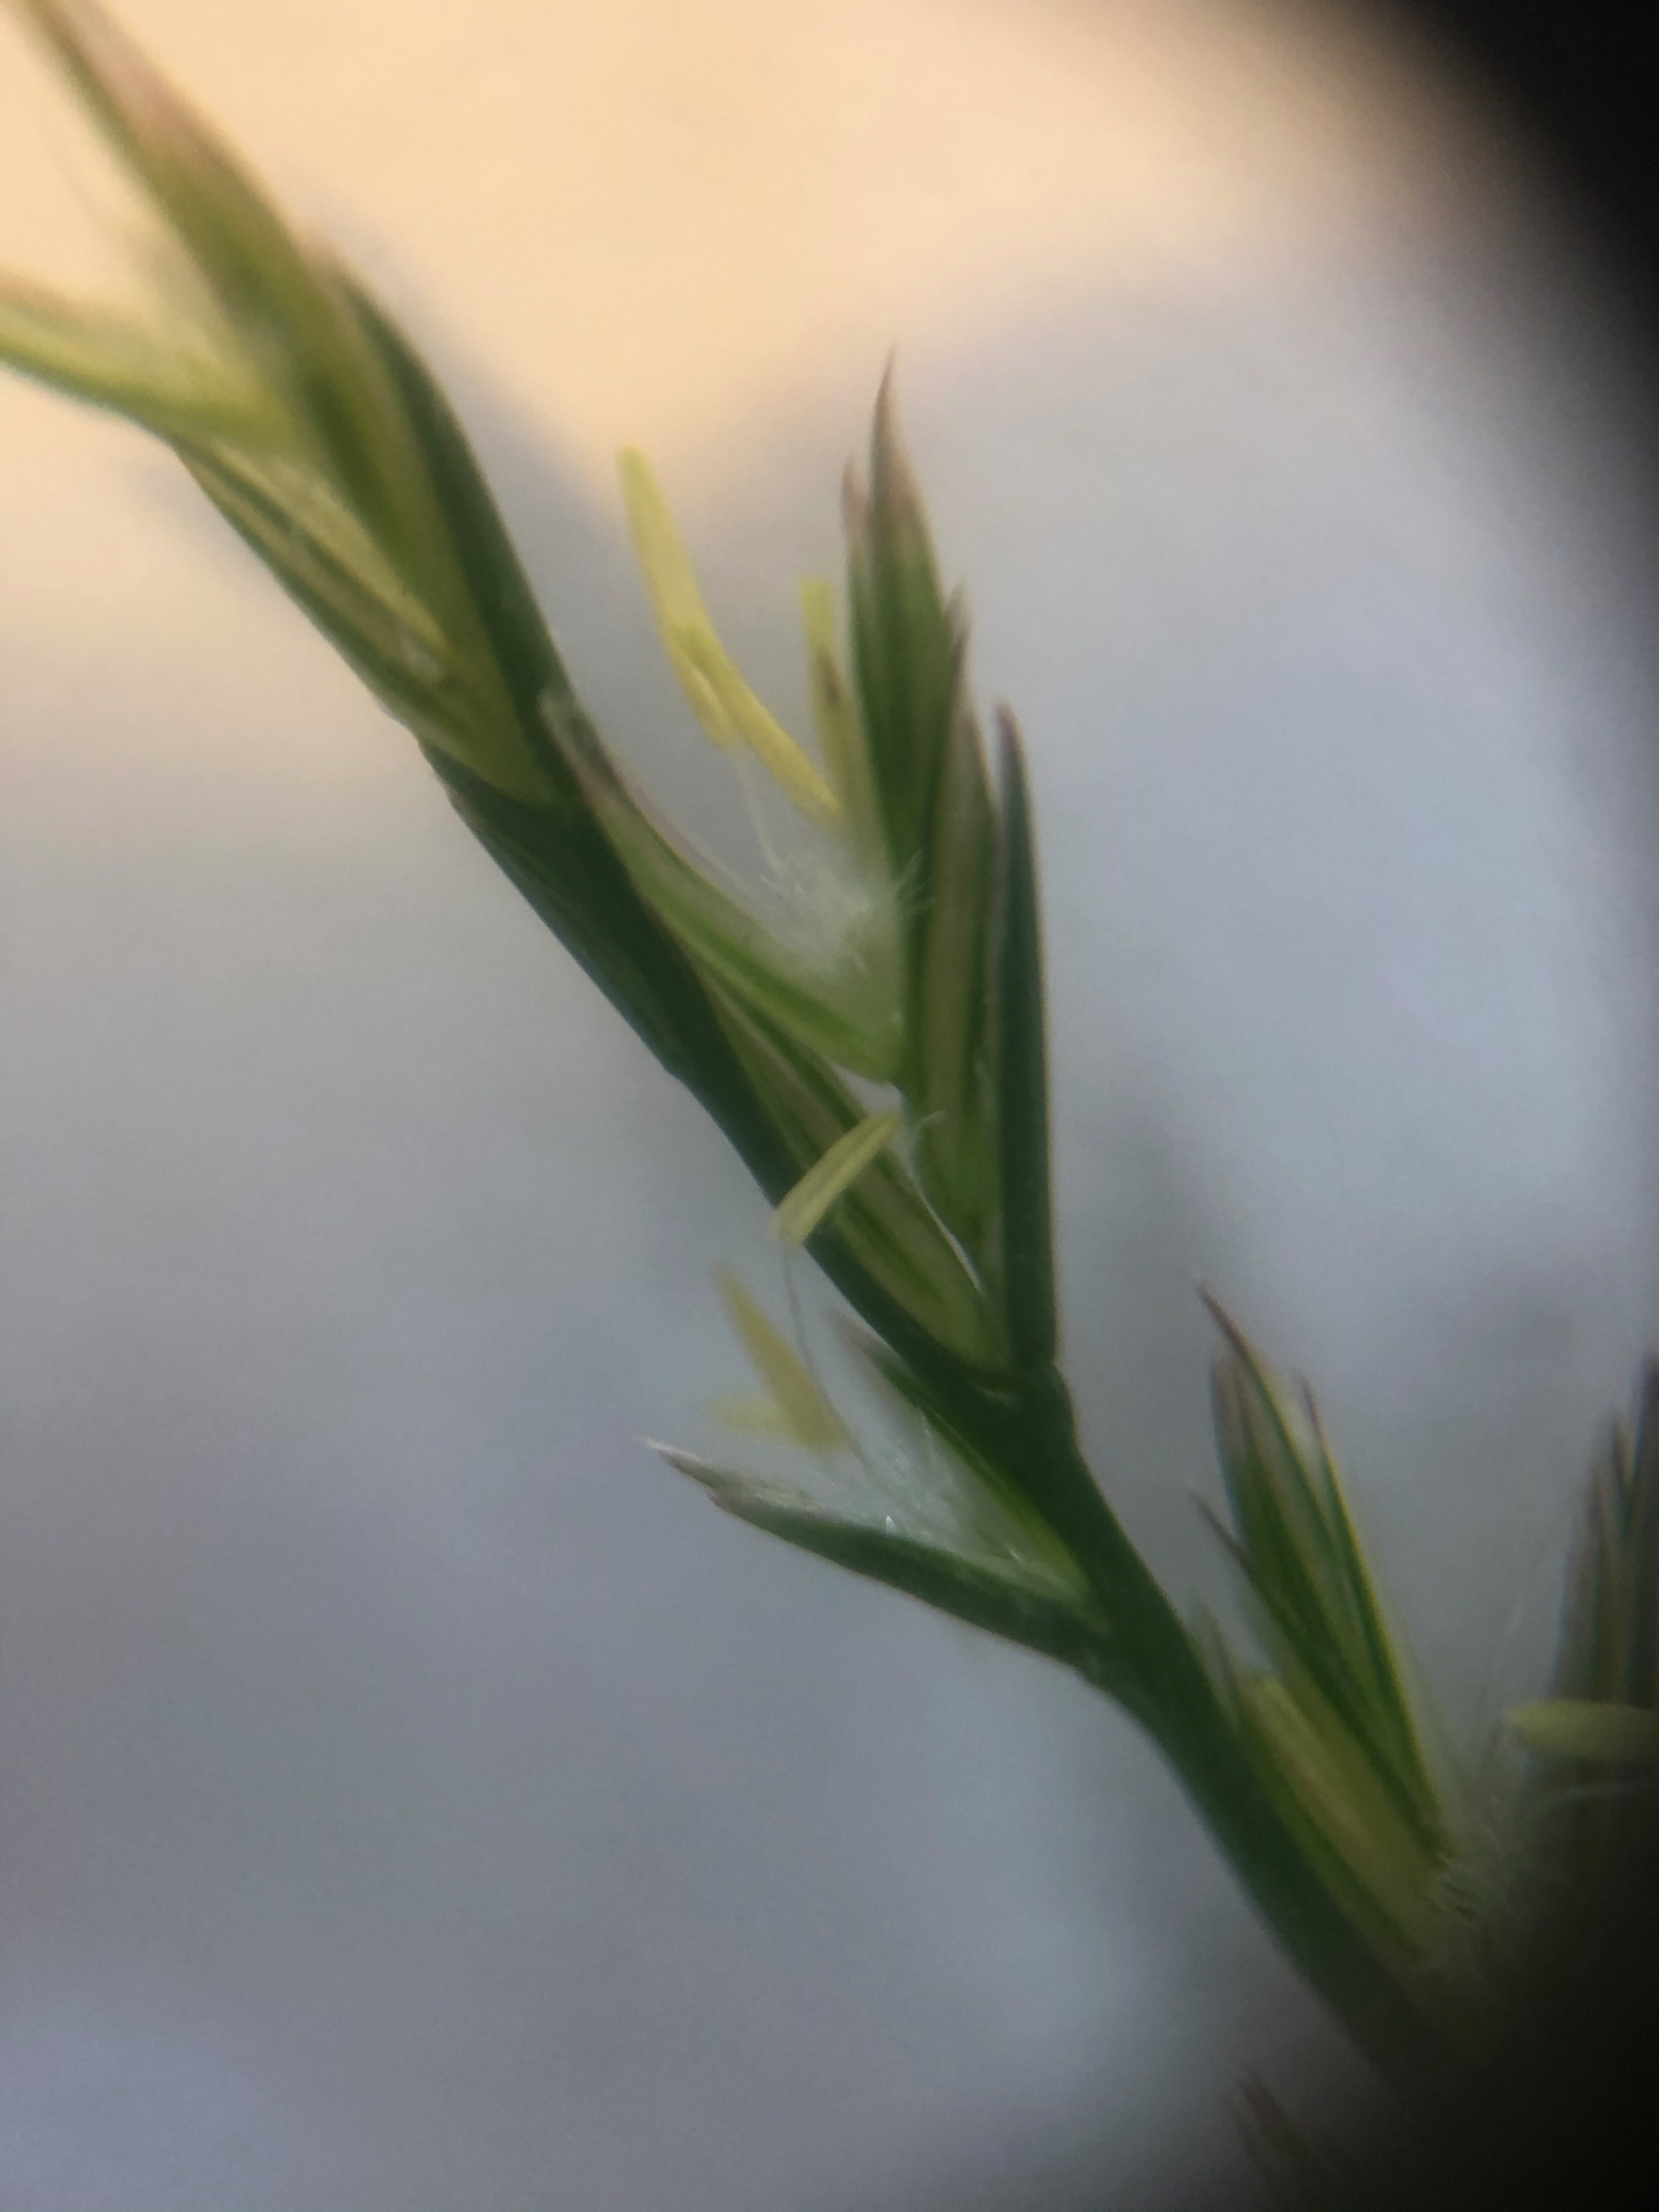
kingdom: Plantae
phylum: Tracheophyta
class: Liliopsida
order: Poales
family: Poaceae
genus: Lolium
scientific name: Lolium perenne
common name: Almindelig rajgræs
